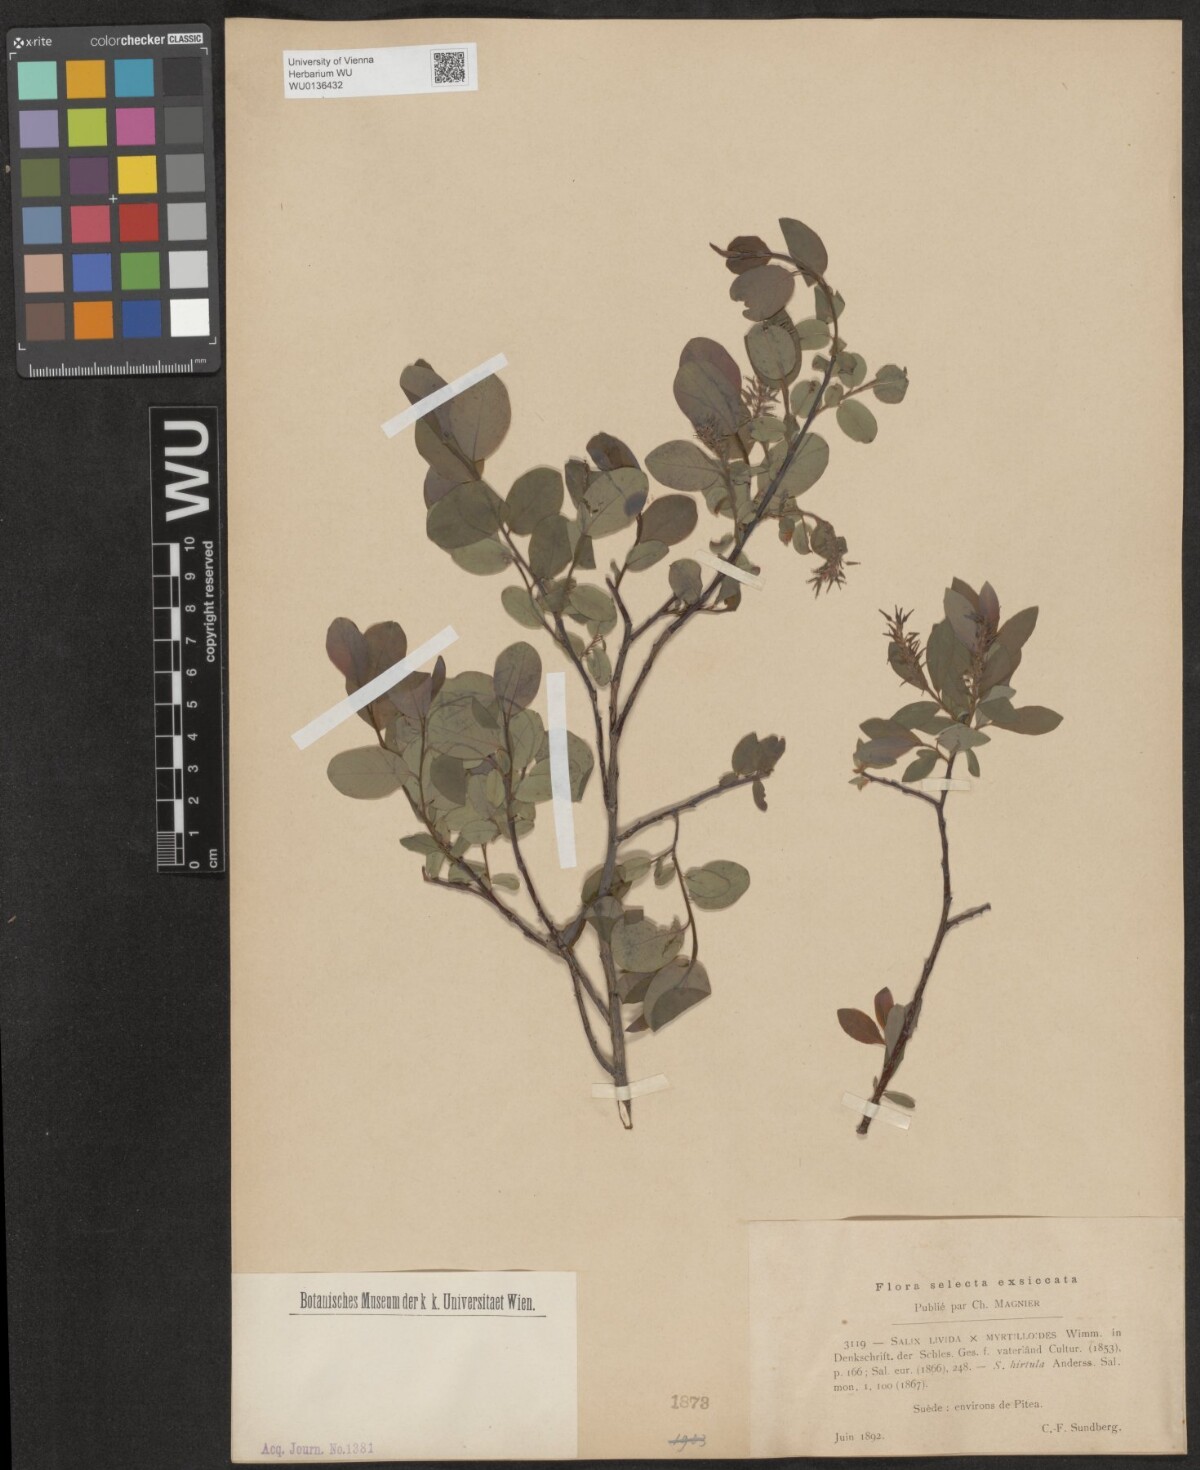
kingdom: Plantae
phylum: Tracheophyta
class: Magnoliopsida
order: Malpighiales
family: Salicaceae
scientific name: Salicaceae
